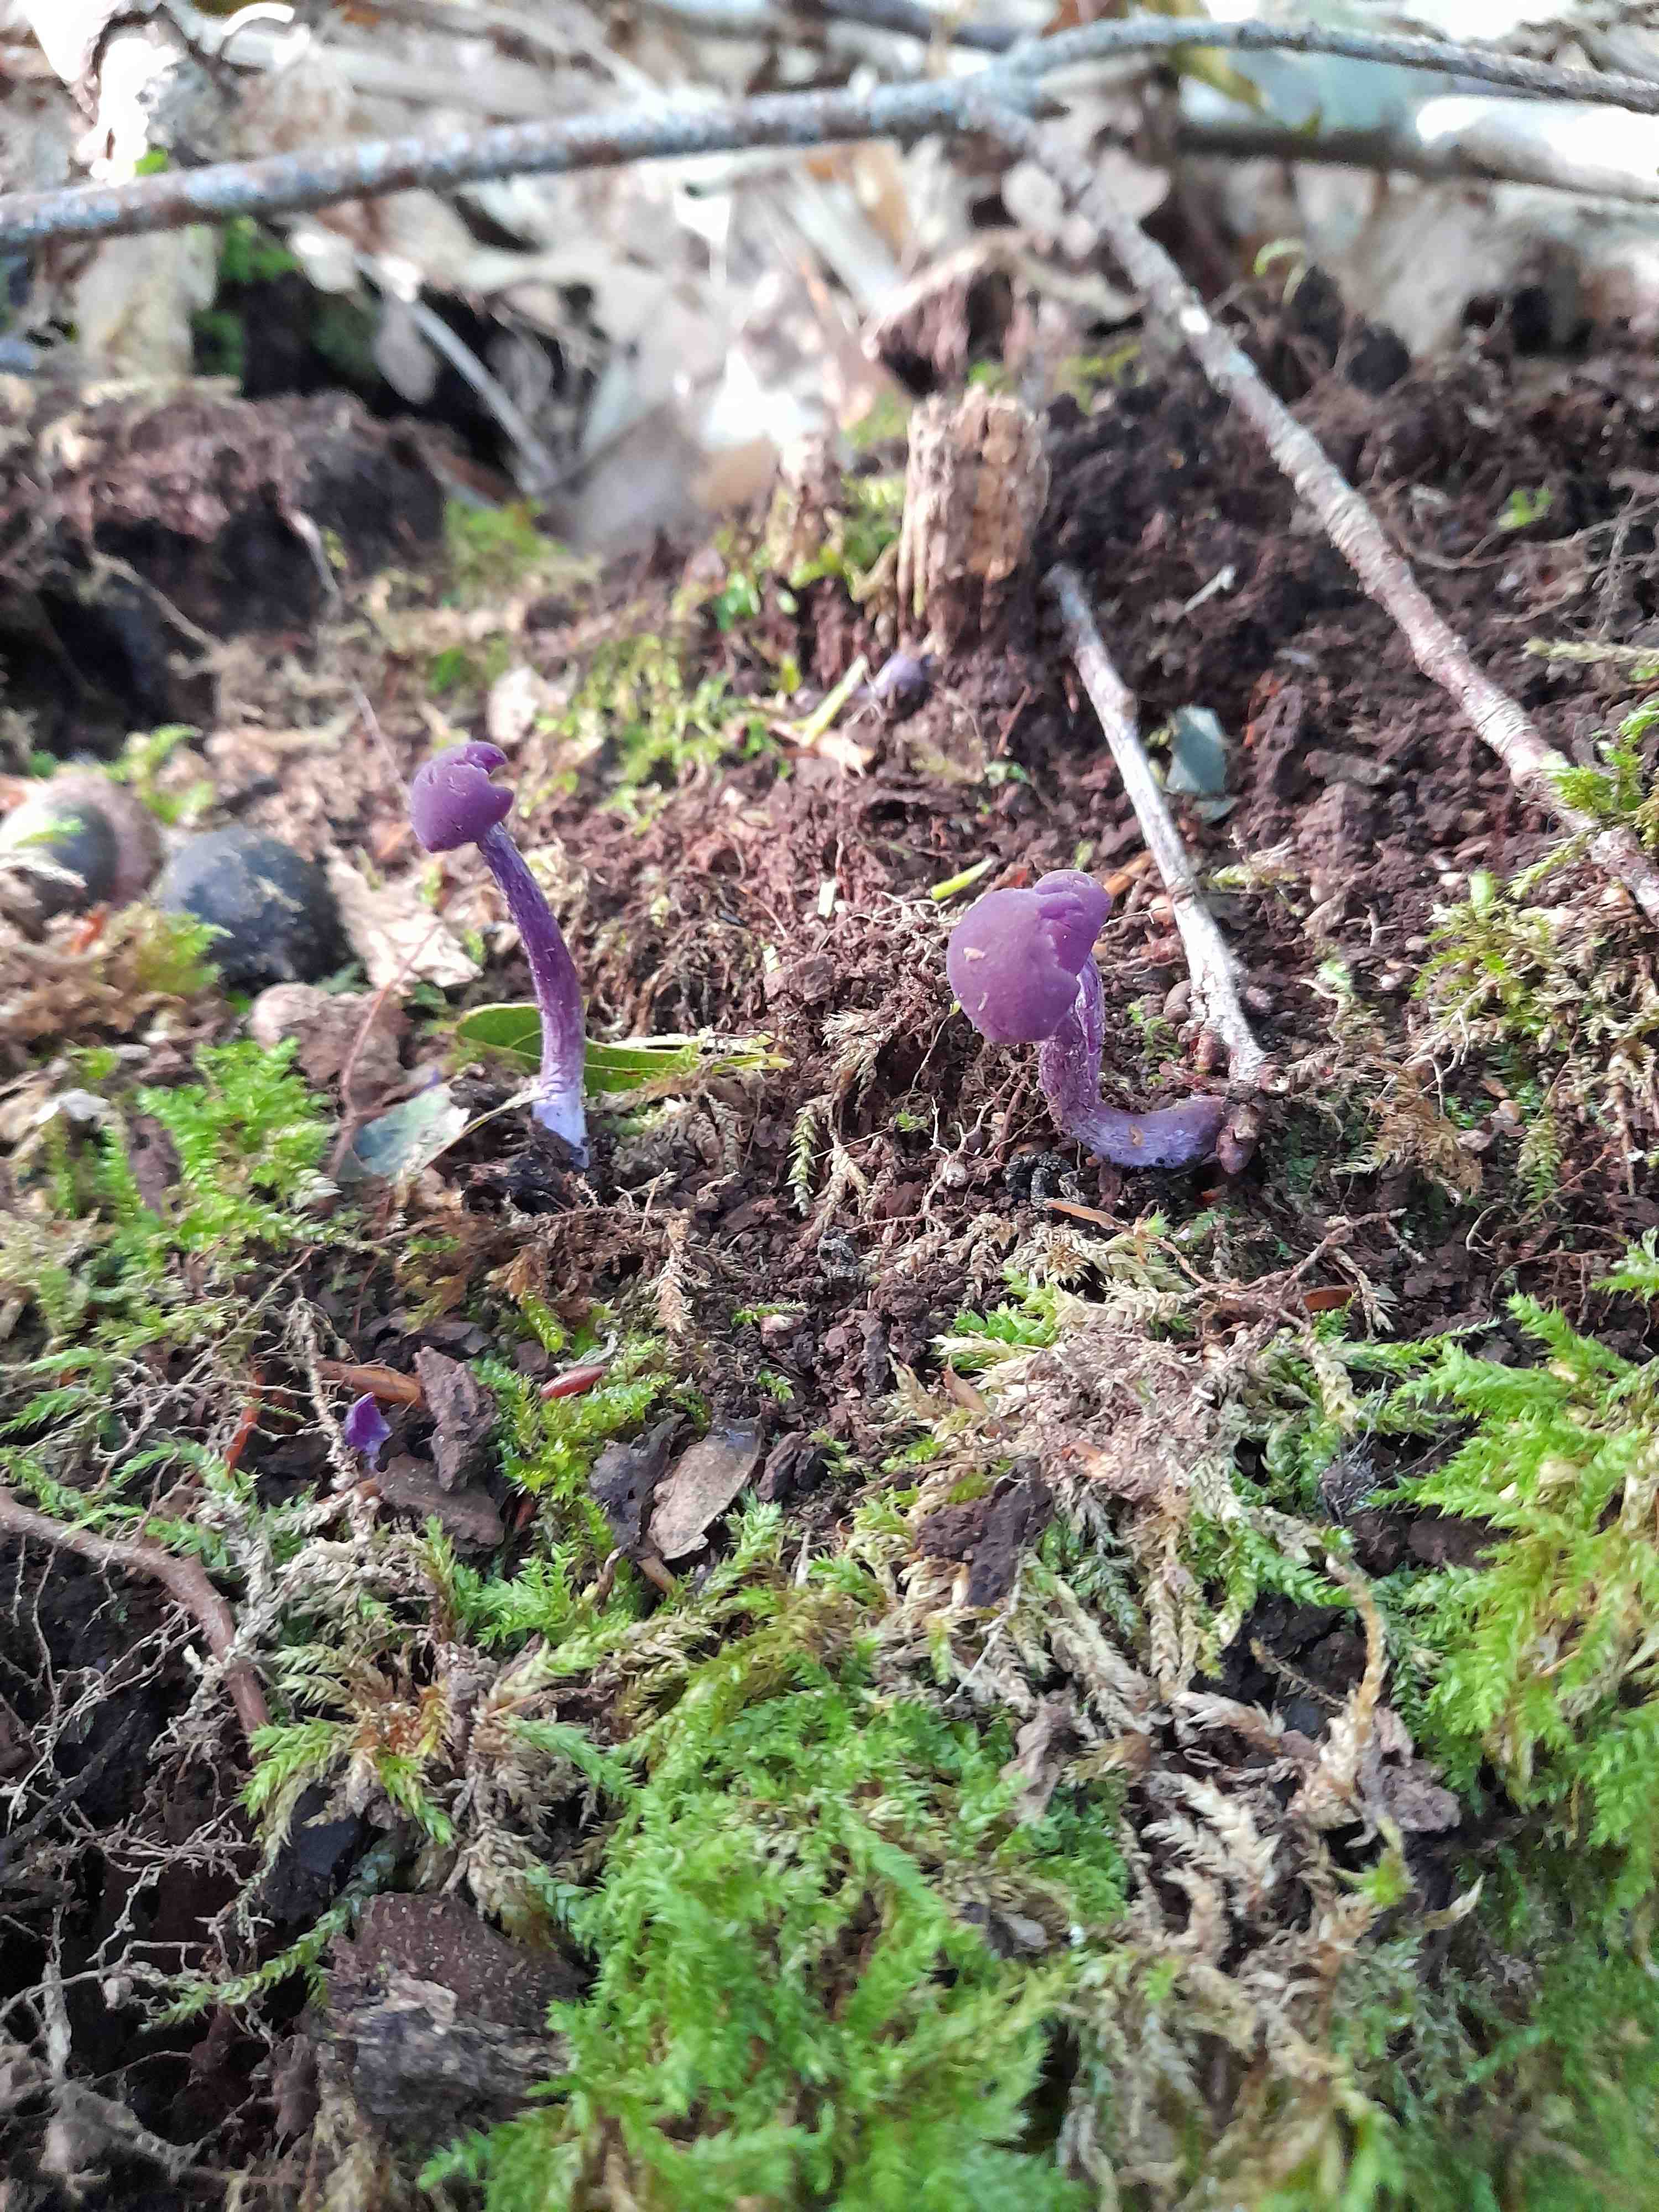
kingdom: Fungi
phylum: Basidiomycota
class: Agaricomycetes
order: Agaricales
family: Hydnangiaceae
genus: Laccaria
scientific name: Laccaria amethystina
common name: violet ametysthat
